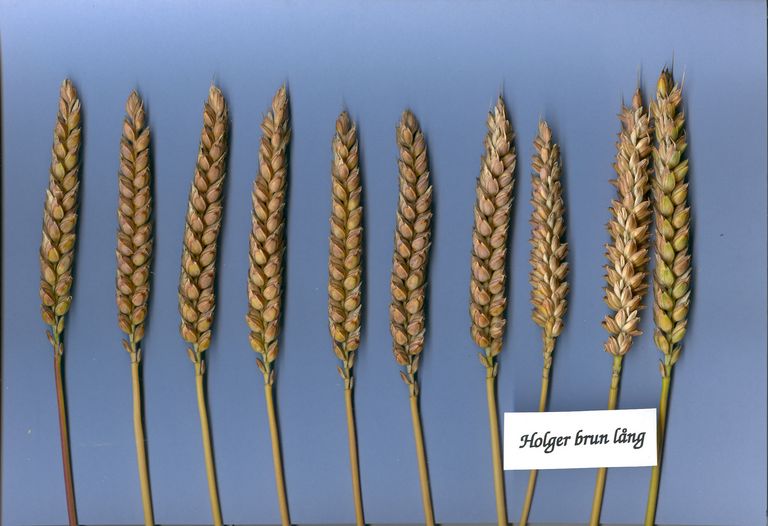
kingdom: Plantae
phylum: Tracheophyta
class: Liliopsida
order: Poales
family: Poaceae
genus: Triticum
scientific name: Triticum aestivum
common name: Common wheat
